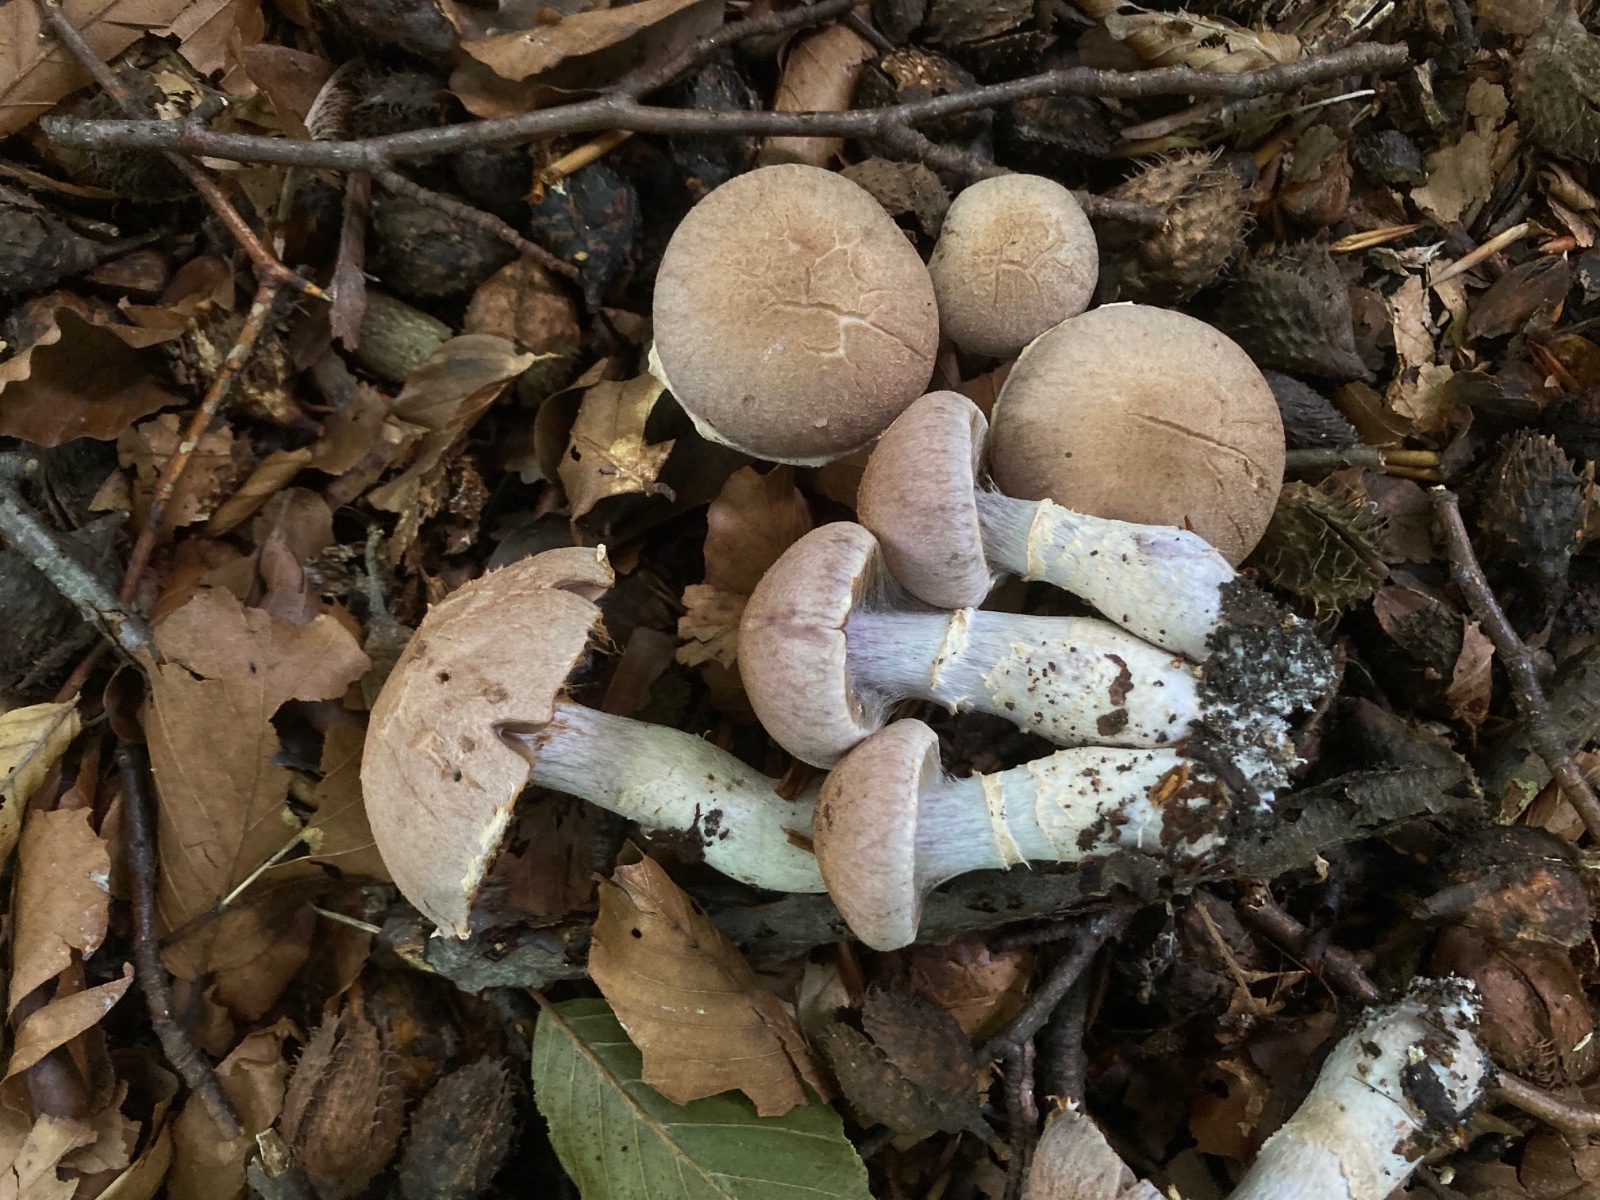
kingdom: Fungi
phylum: Basidiomycota
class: Agaricomycetes
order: Agaricales
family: Cortinariaceae
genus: Cortinarius
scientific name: Cortinarius torvus
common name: champignonagtig slørhat
